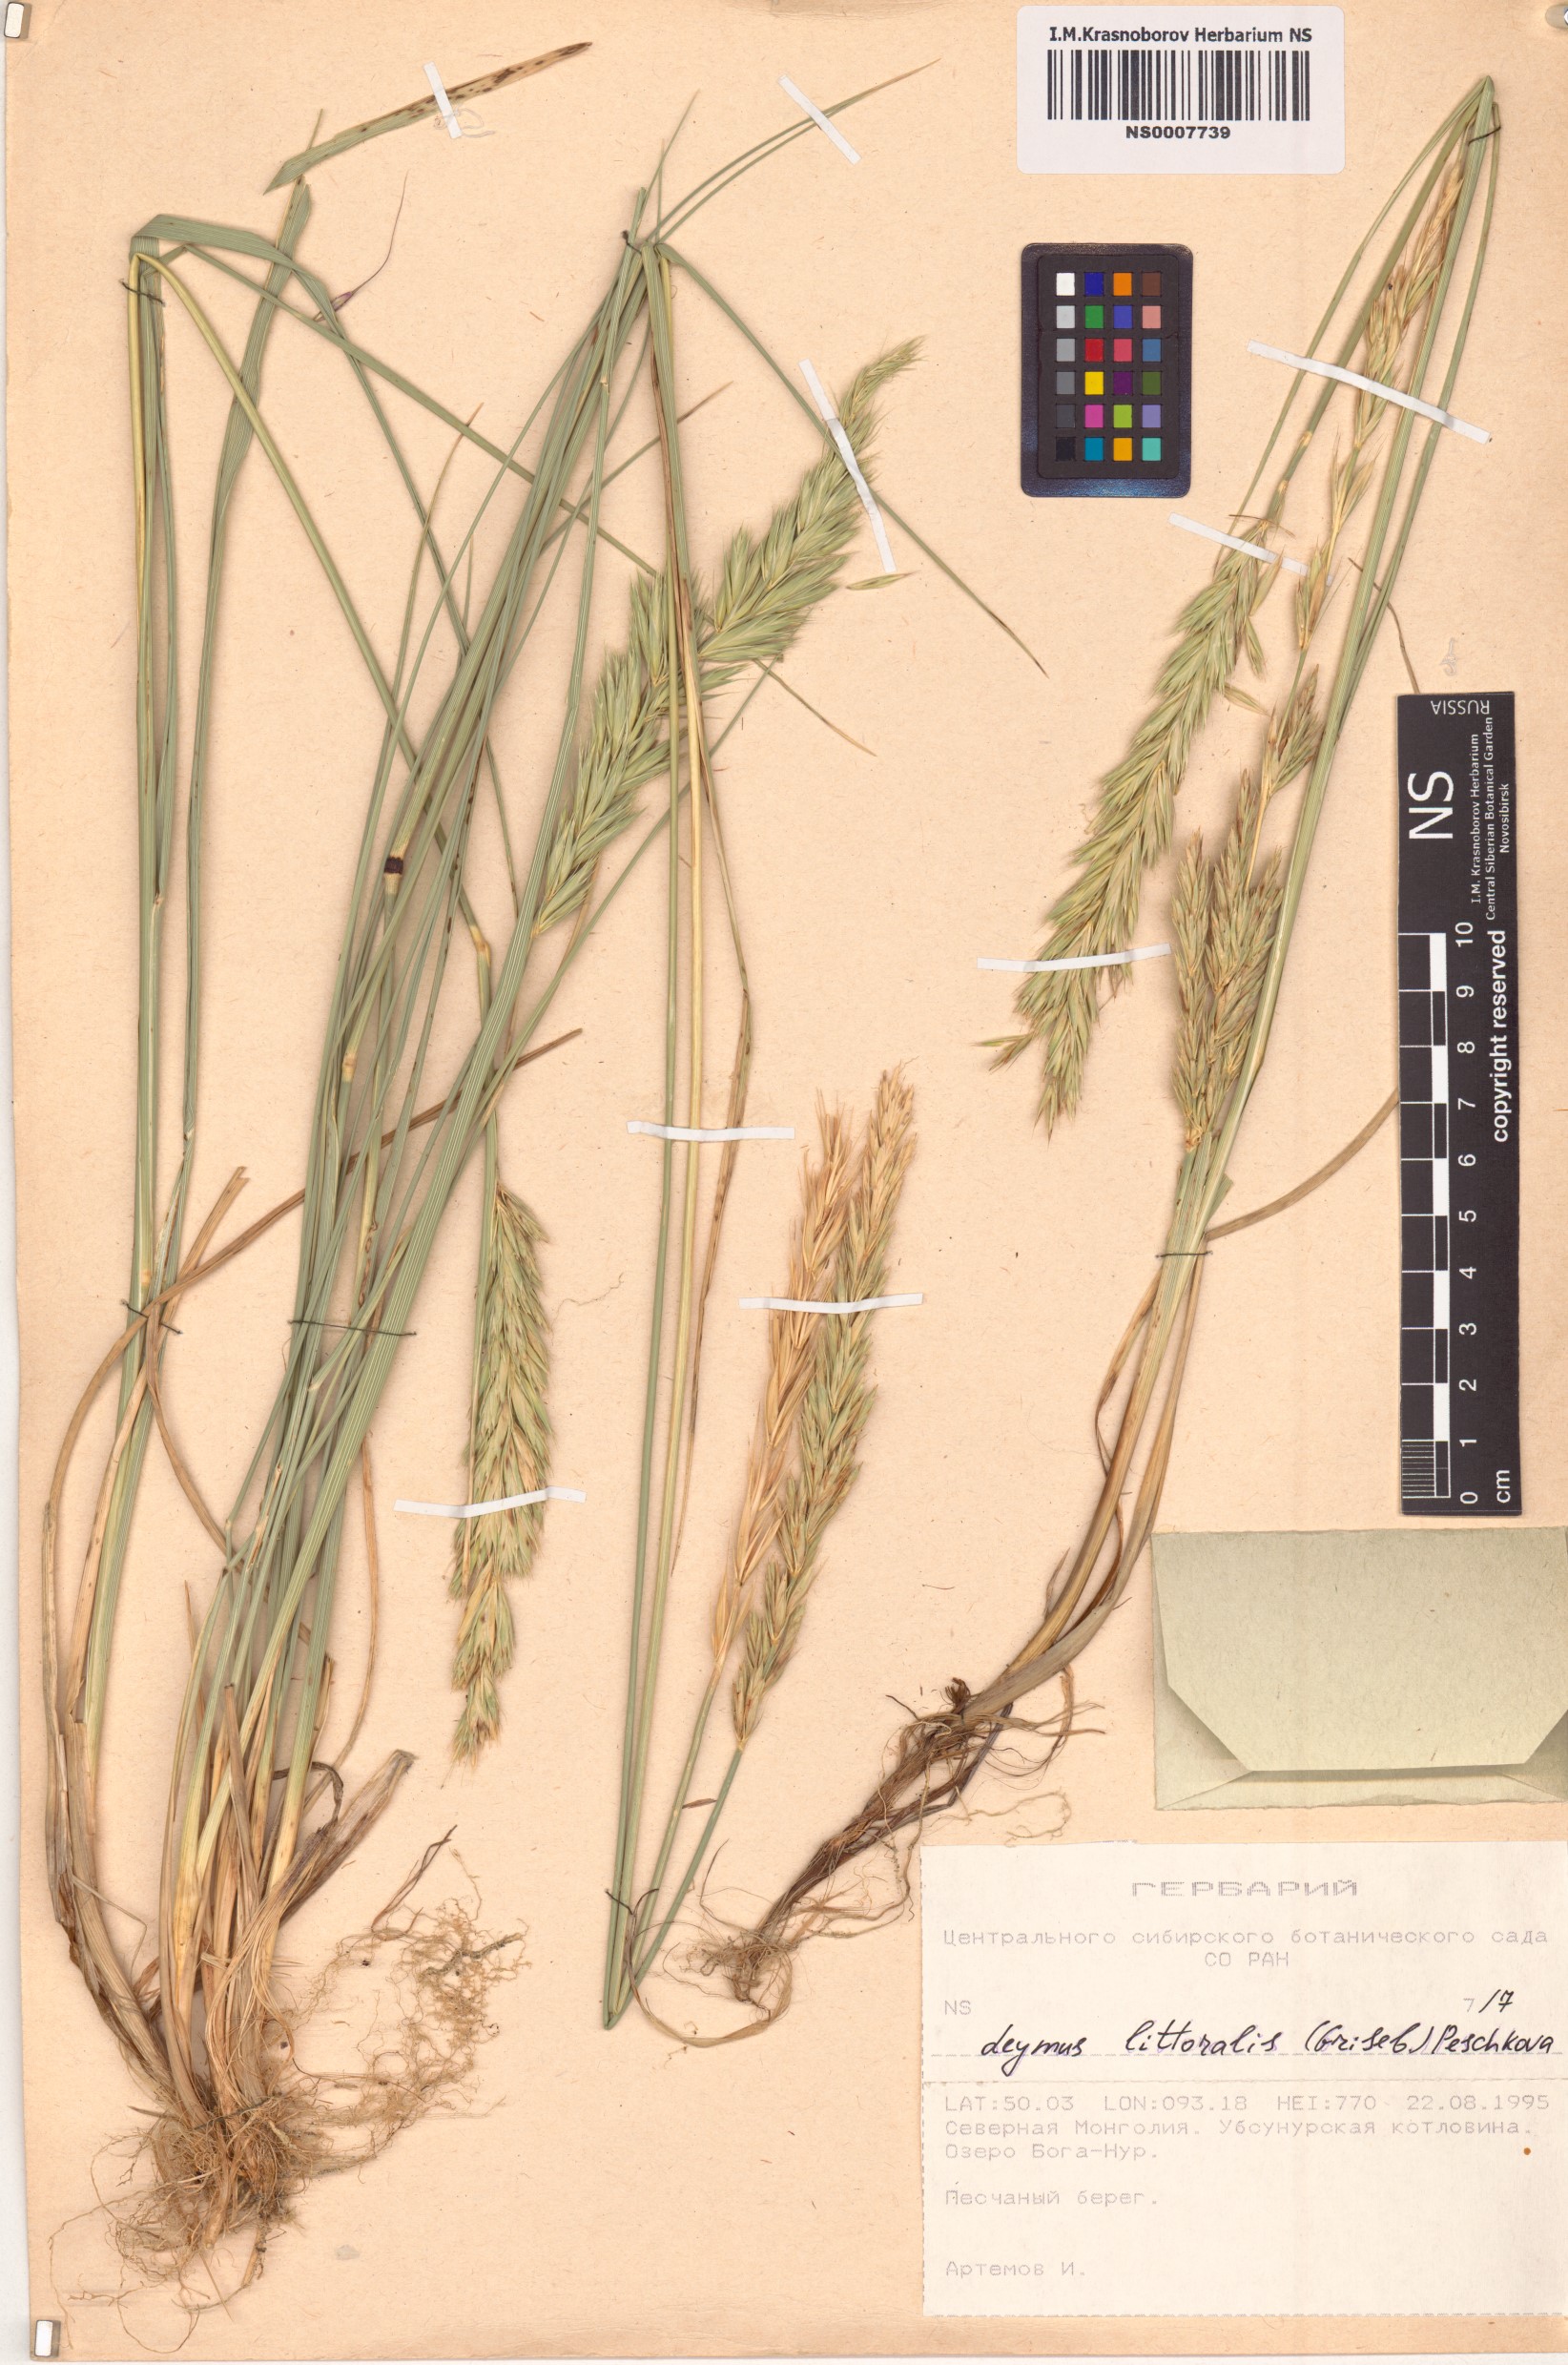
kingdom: Plantae
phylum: Tracheophyta
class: Liliopsida
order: Poales
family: Poaceae
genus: Leymus
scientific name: Leymus secalinus
